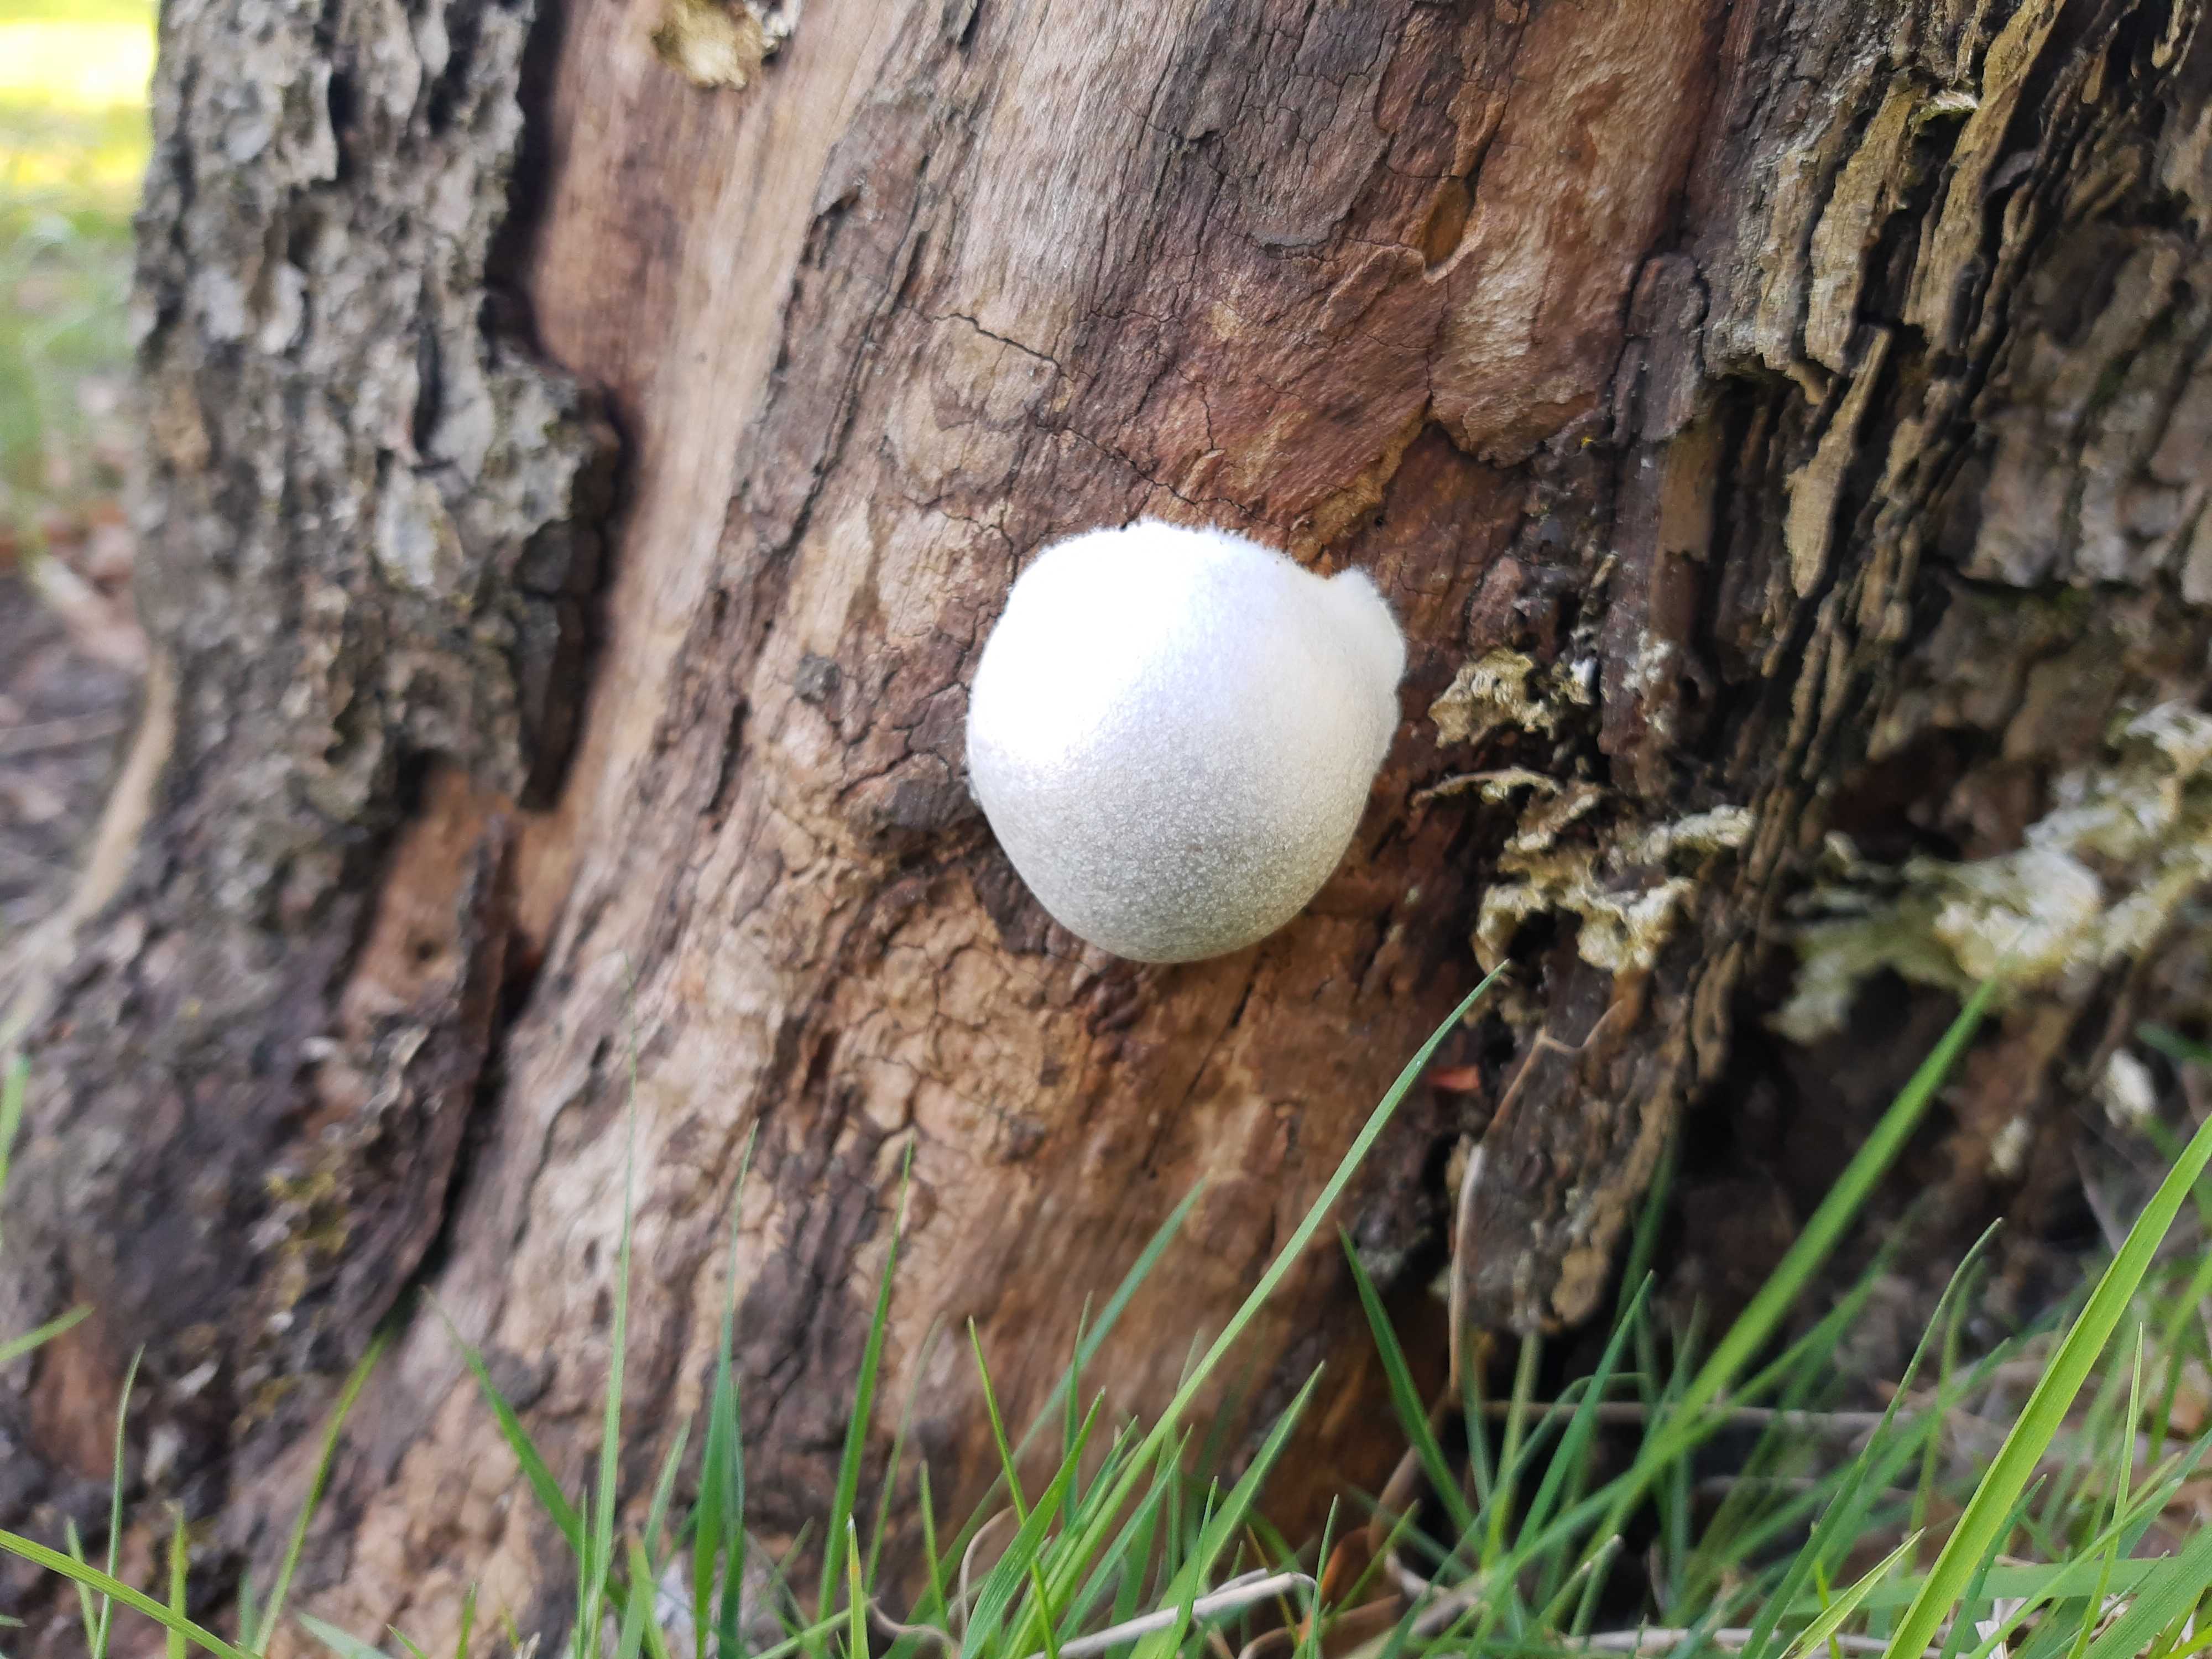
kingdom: Protozoa
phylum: Mycetozoa
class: Myxomycetes
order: Cribrariales
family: Tubiferaceae
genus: Reticularia
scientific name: Reticularia lycoperdon
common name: skinnende støvpude
